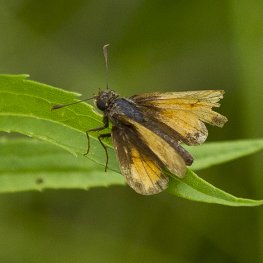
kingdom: Animalia
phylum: Arthropoda
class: Insecta
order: Lepidoptera
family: Hesperiidae
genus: Lon
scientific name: Lon hobomok
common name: Hobomok Skipper
